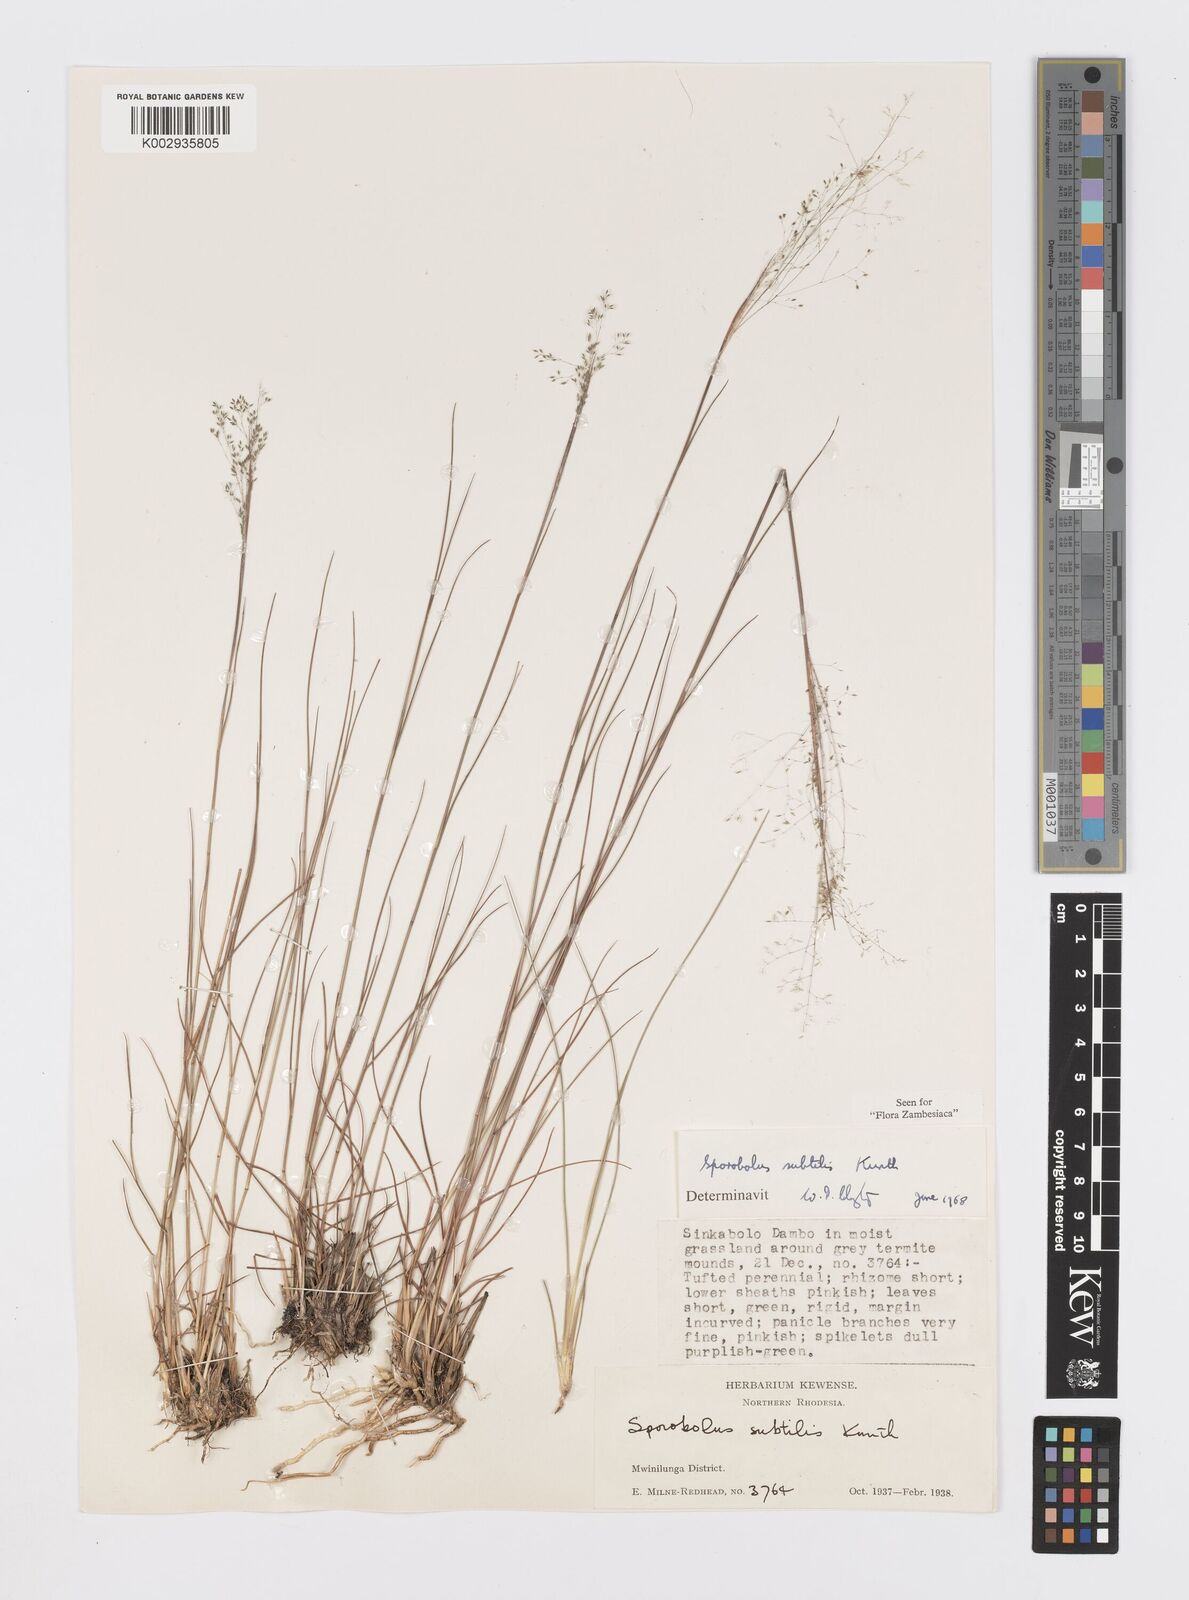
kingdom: Plantae
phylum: Tracheophyta
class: Liliopsida
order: Poales
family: Poaceae
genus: Sporobolus
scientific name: Sporobolus subtilis
